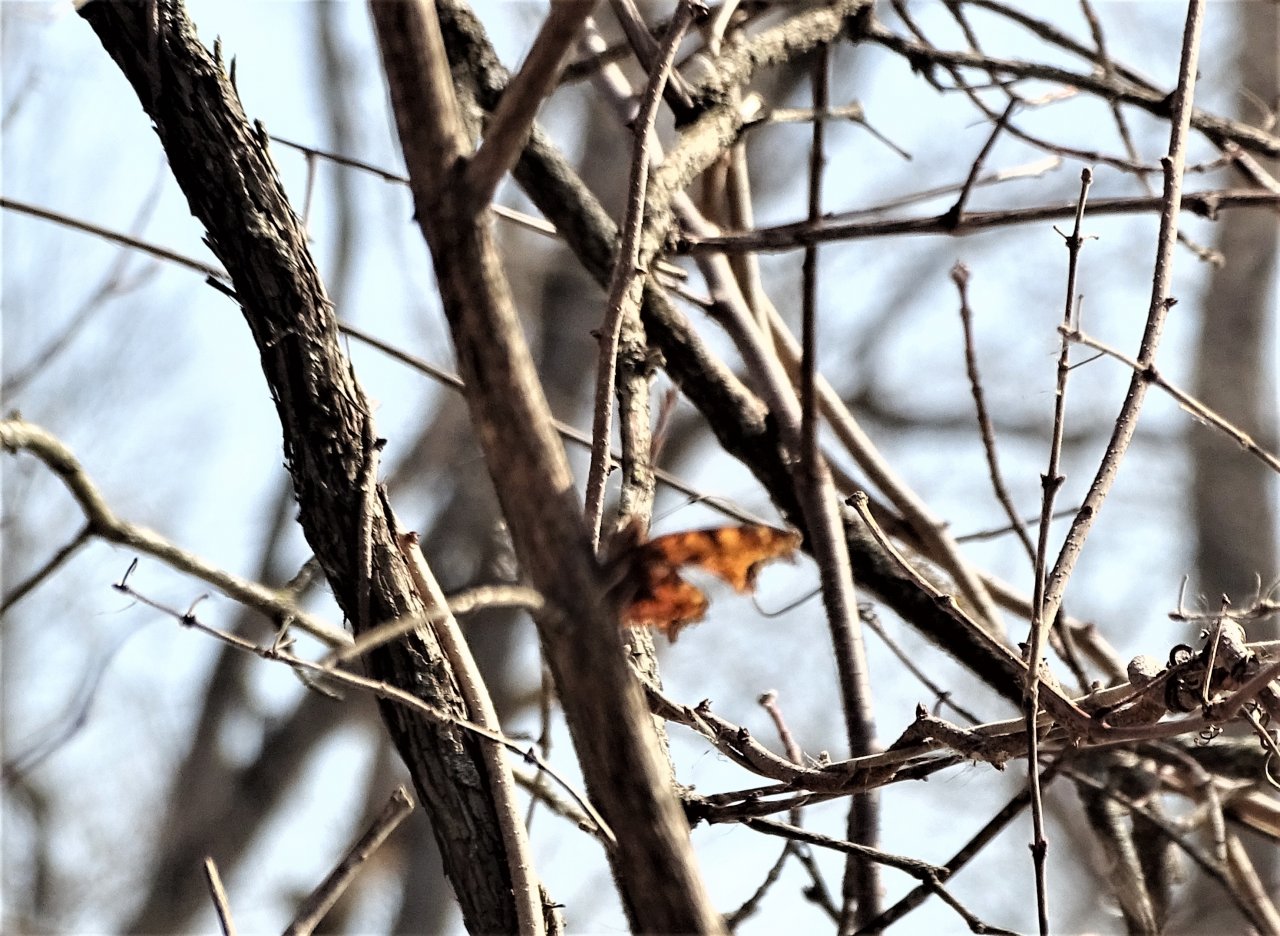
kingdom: Animalia
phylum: Arthropoda
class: Insecta
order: Lepidoptera
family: Nymphalidae
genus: Polygonia
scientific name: Polygonia
